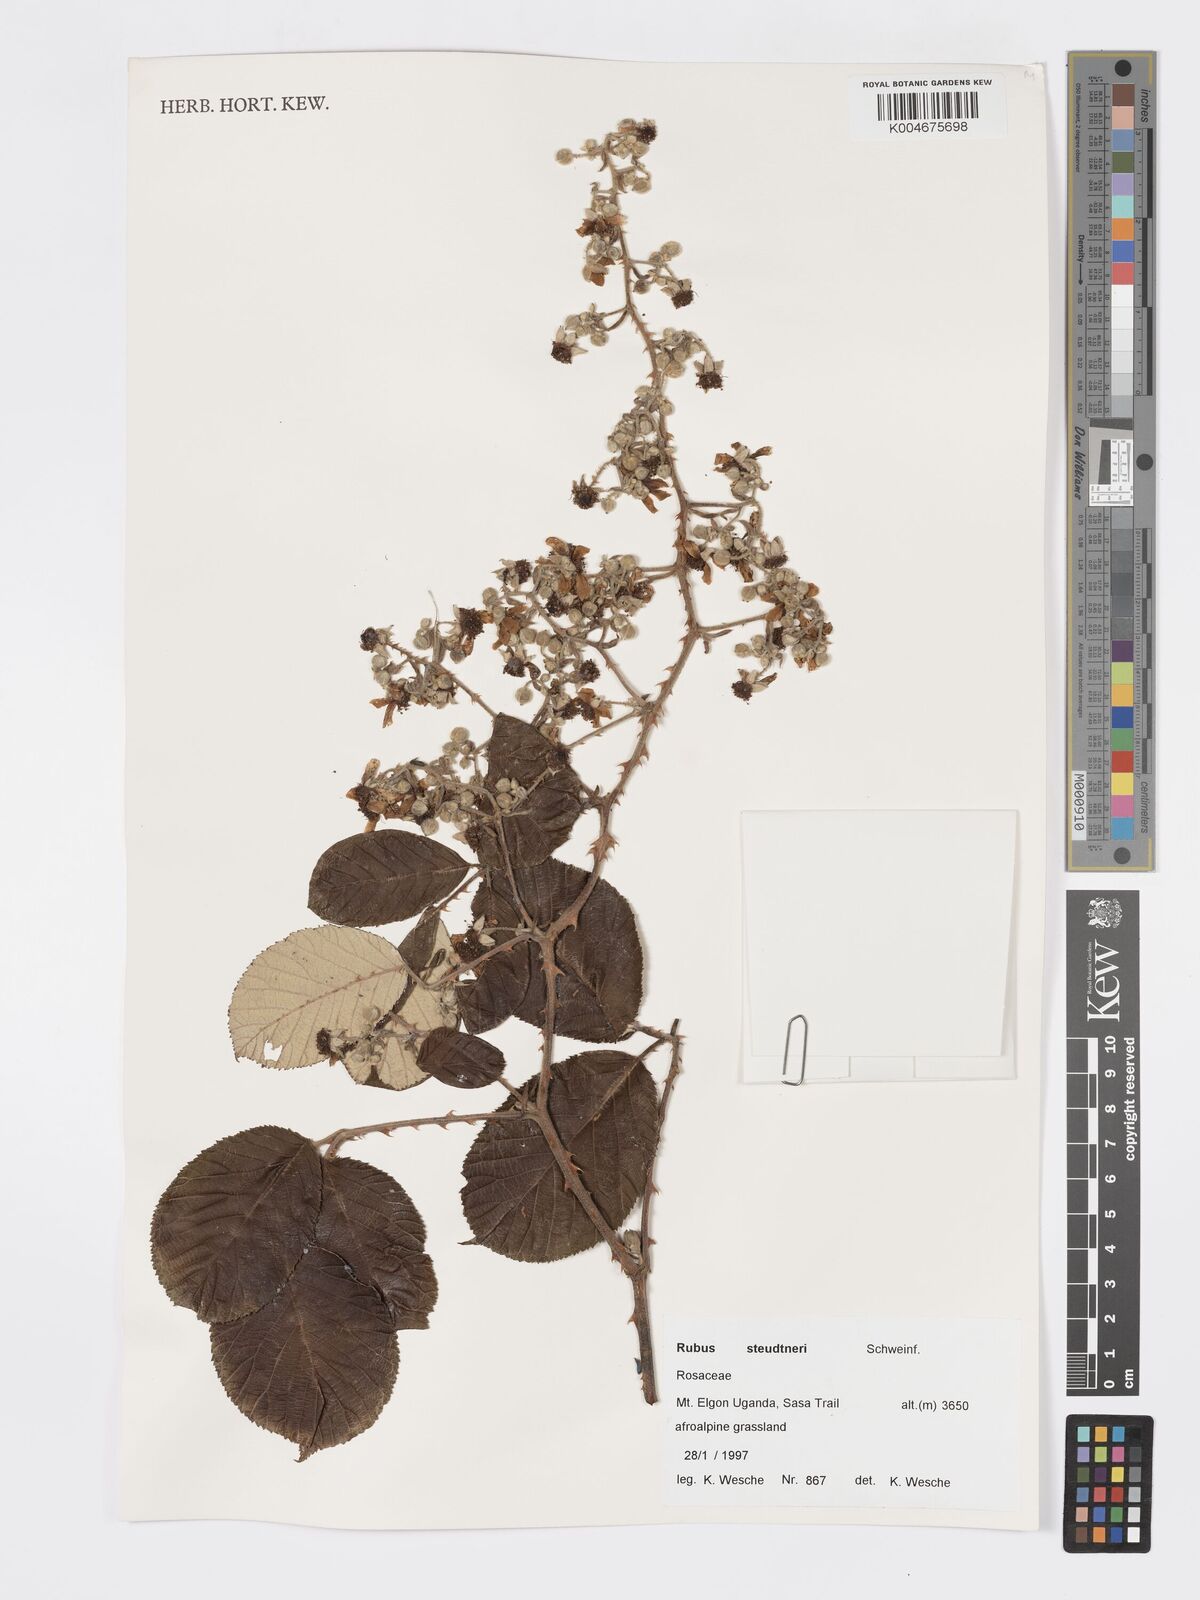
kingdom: Plantae
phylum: Tracheophyta
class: Magnoliopsida
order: Rosales
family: Rosaceae
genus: Rubus
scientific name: Rubus steudneri
